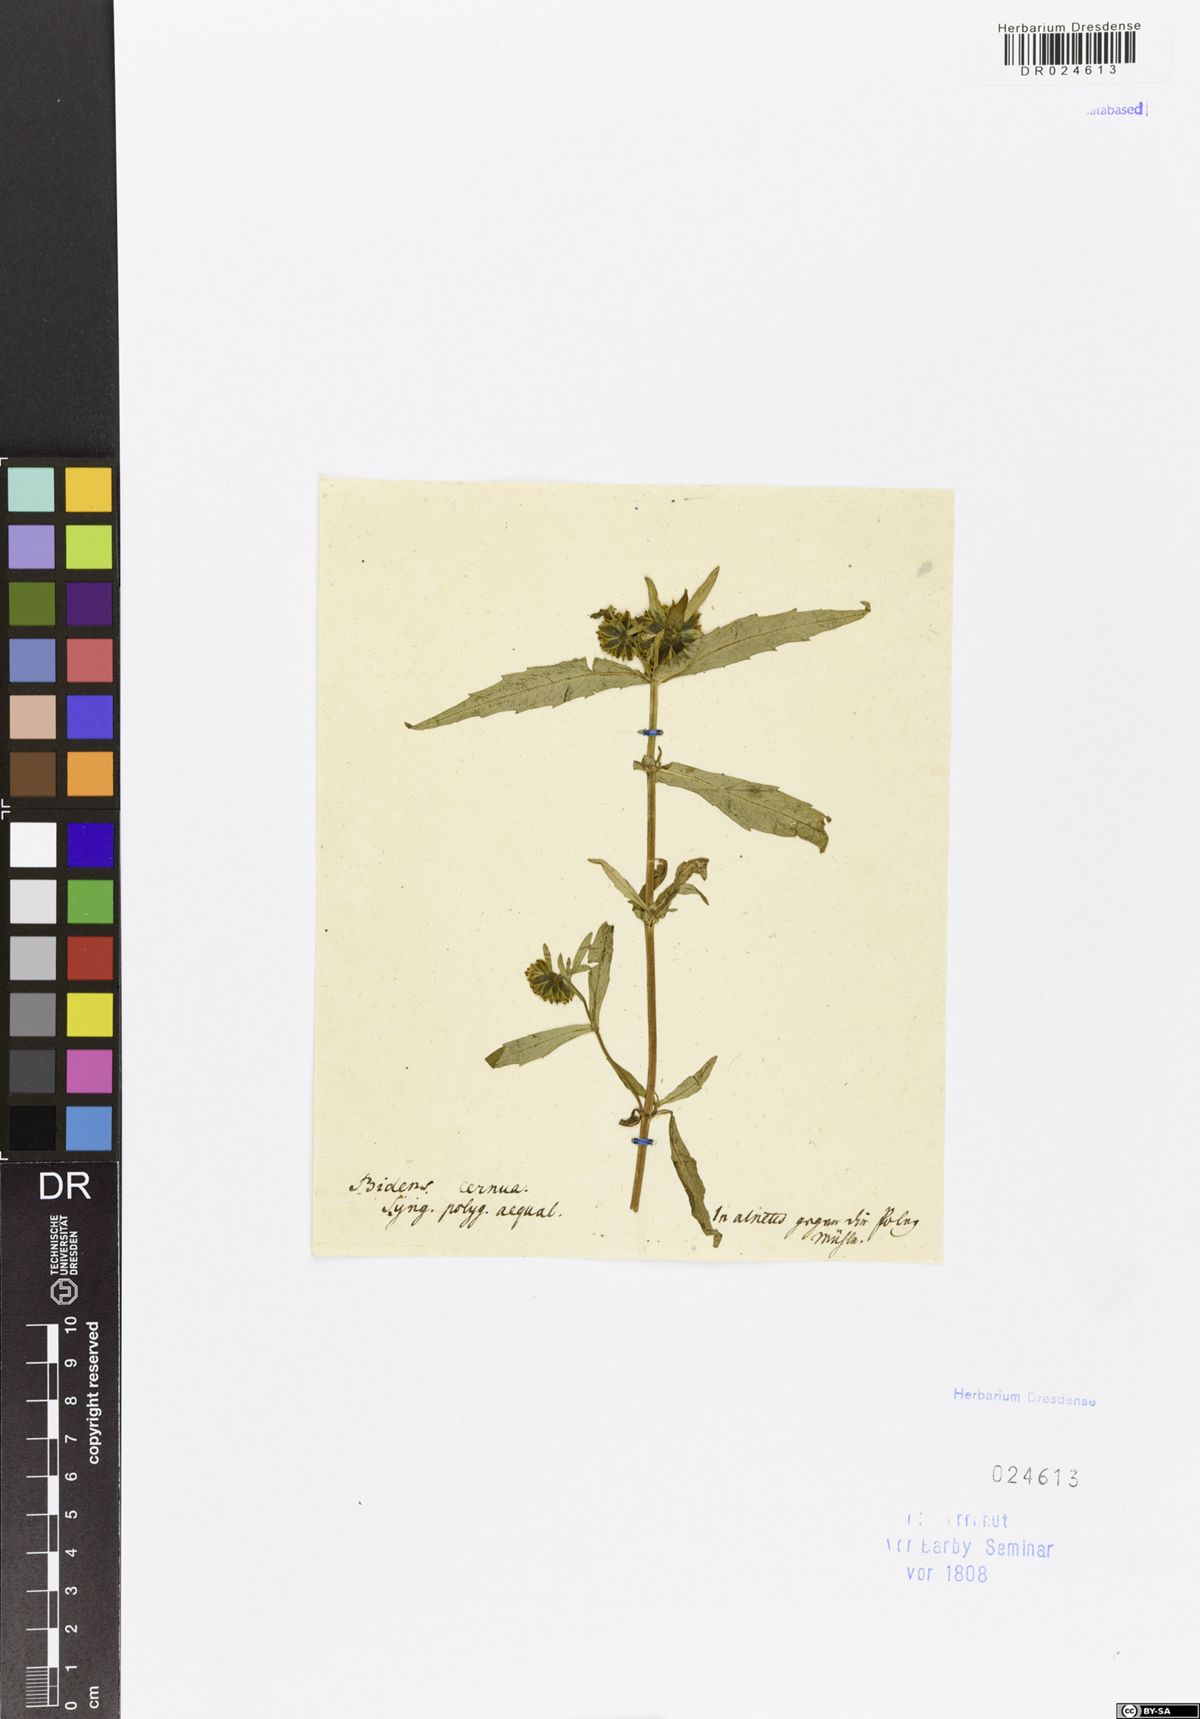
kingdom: Plantae
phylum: Tracheophyta
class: Magnoliopsida
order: Asterales
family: Asteraceae
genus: Bidens
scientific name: Bidens cernua
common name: Nodding bur-marigold
